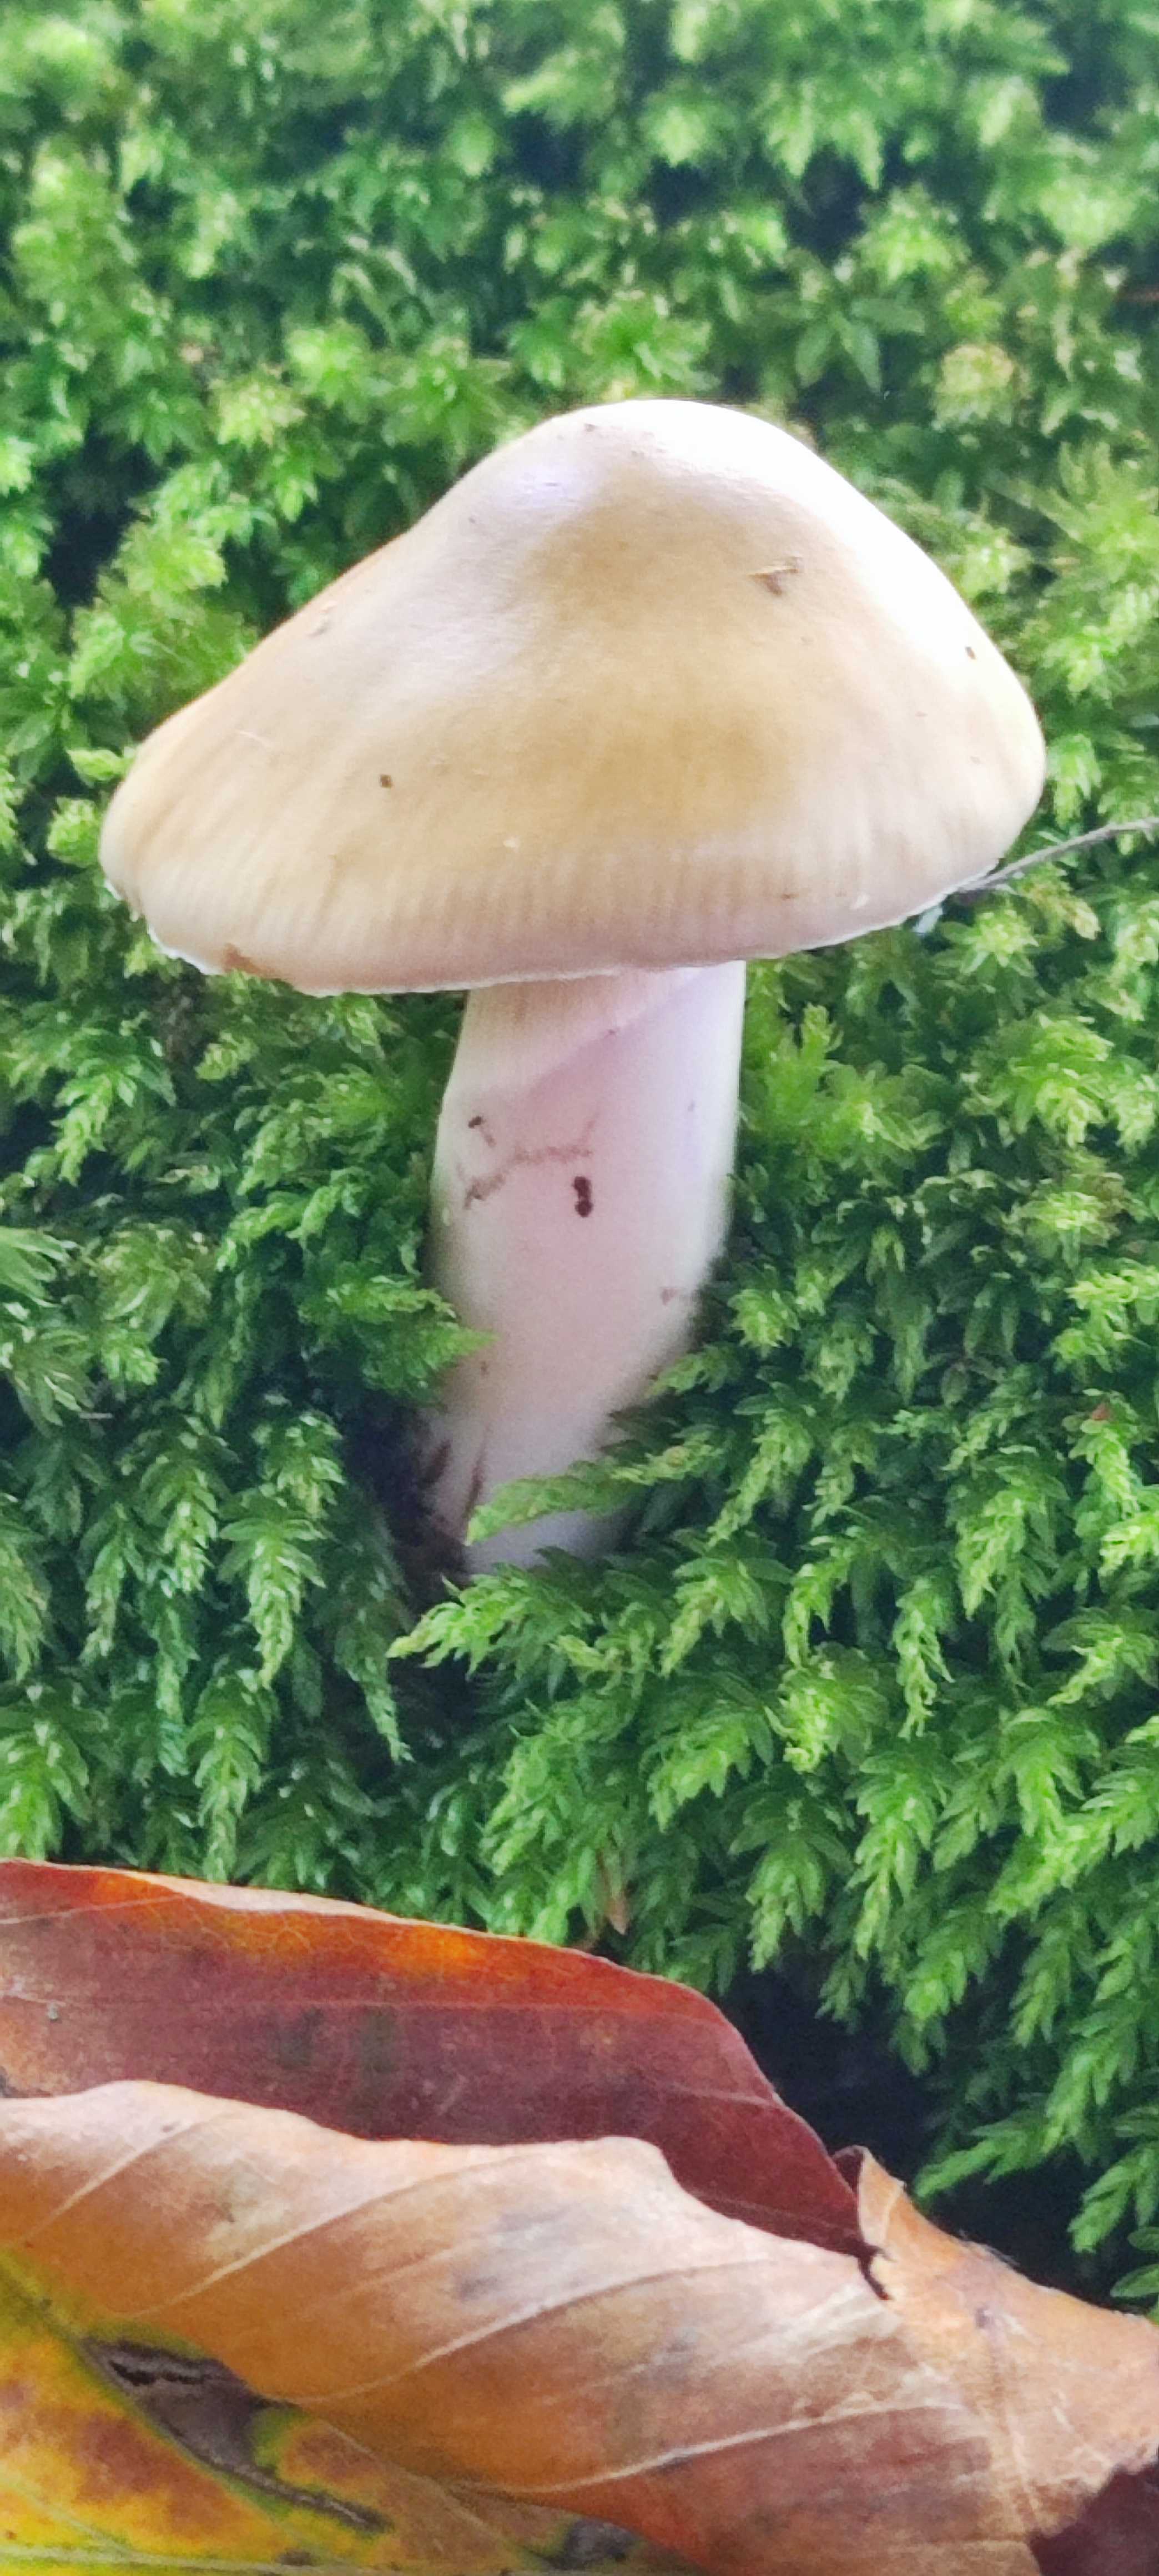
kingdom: Fungi
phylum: Basidiomycota
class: Agaricomycetes
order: Agaricales
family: Cortinariaceae
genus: Cortinarius
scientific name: Cortinarius elatior
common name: høj slørhat
